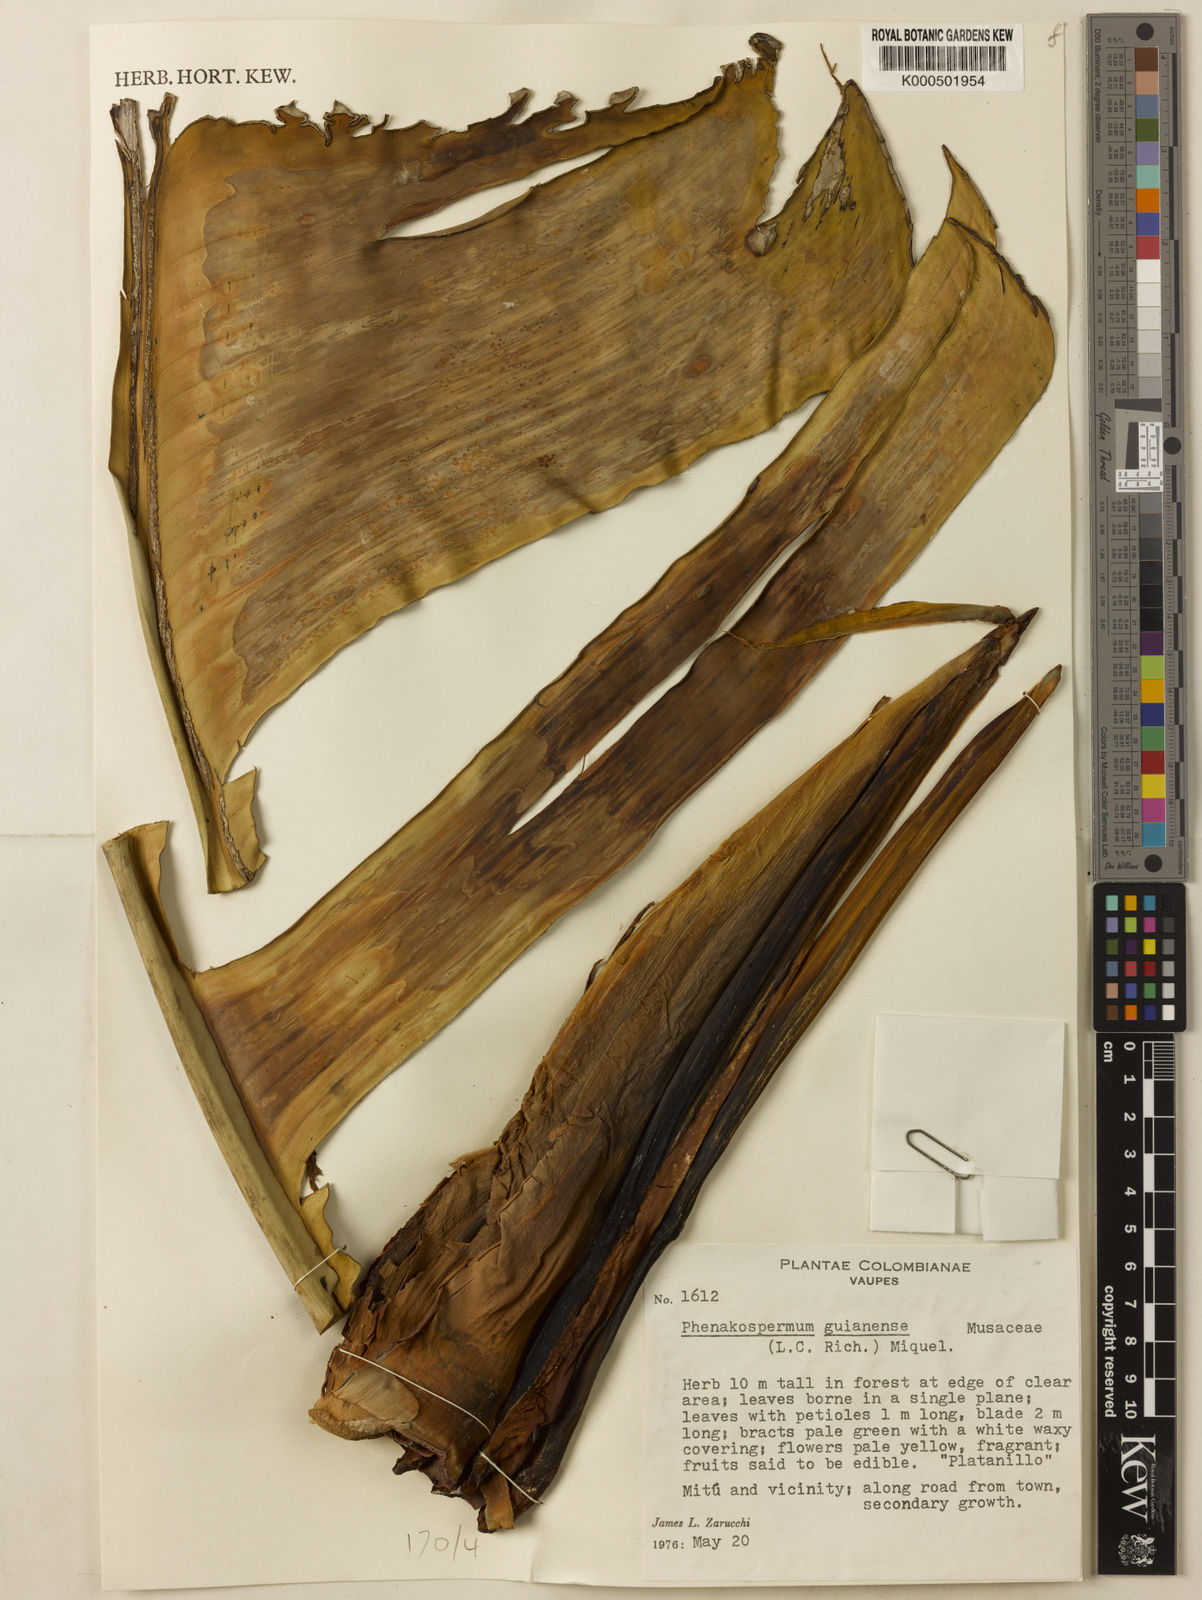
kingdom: Plantae
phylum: Tracheophyta
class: Liliopsida
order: Zingiberales
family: Strelitziaceae
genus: Phenakospermum
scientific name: Phenakospermum guyannense
